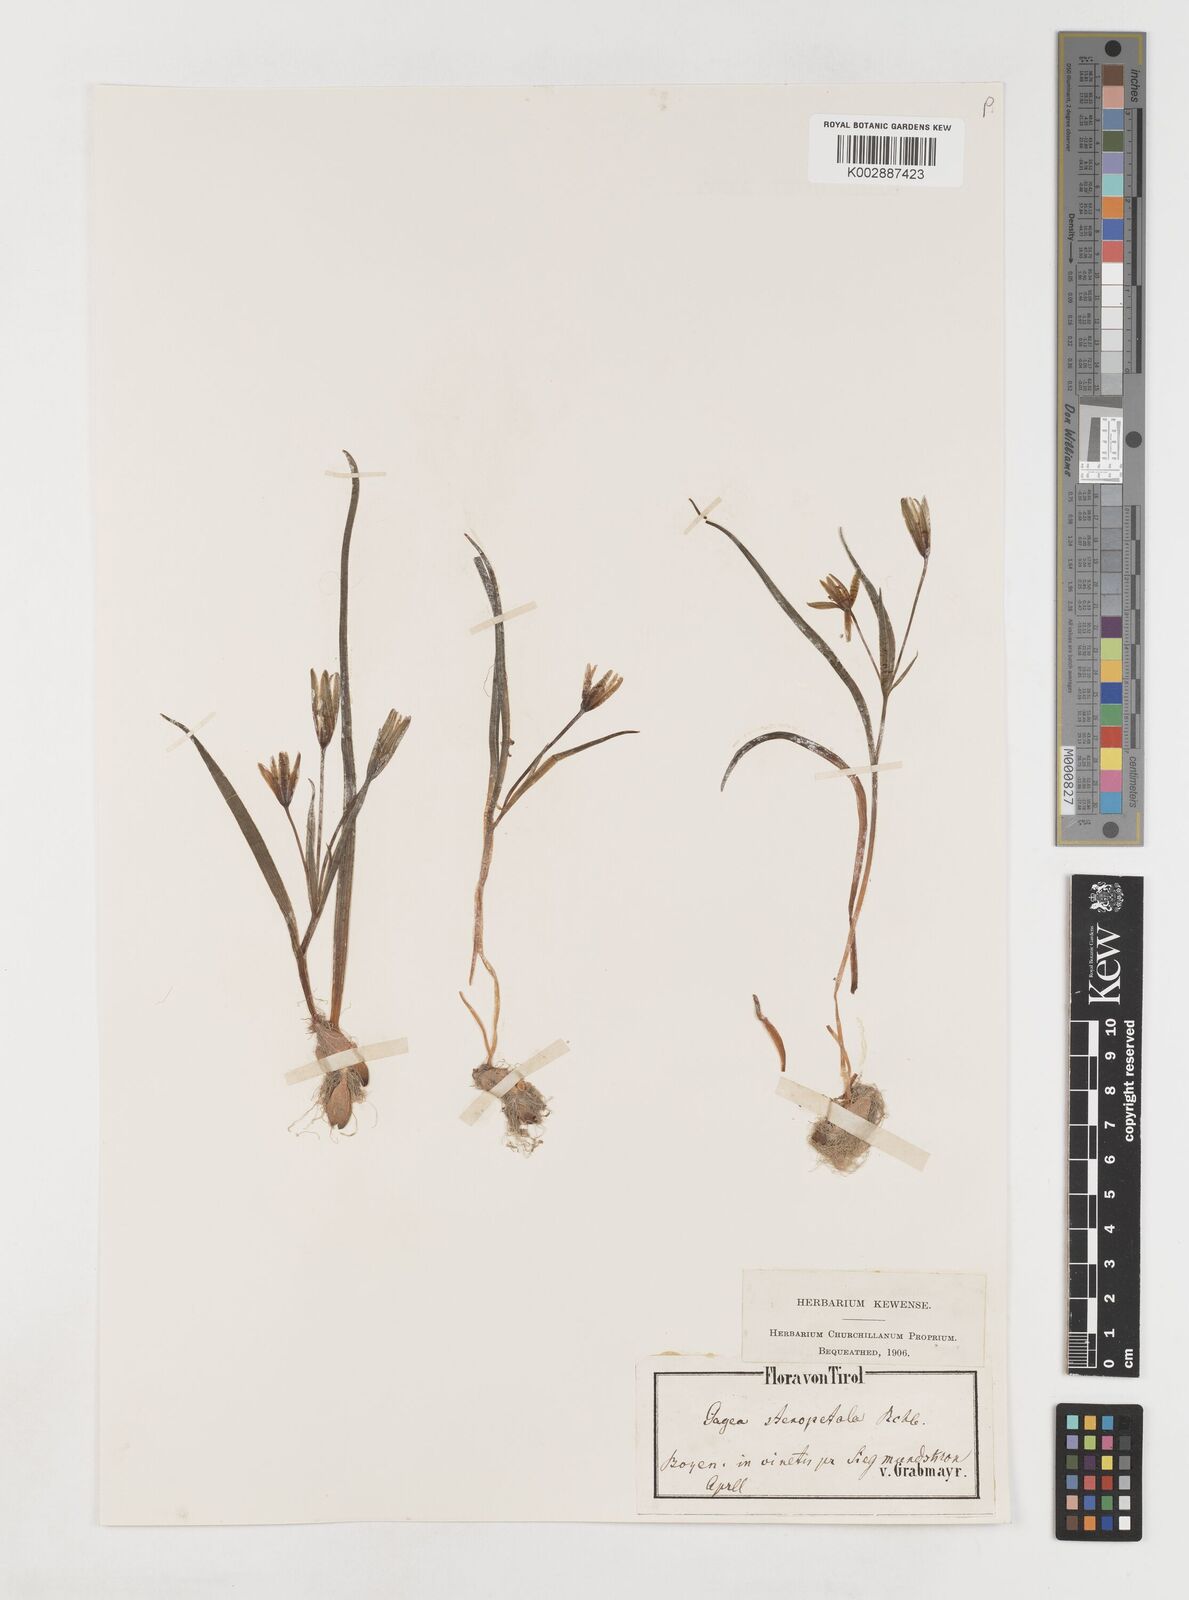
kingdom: Plantae
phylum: Tracheophyta
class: Liliopsida
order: Liliales
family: Liliaceae
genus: Gagea
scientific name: Gagea pratensis
